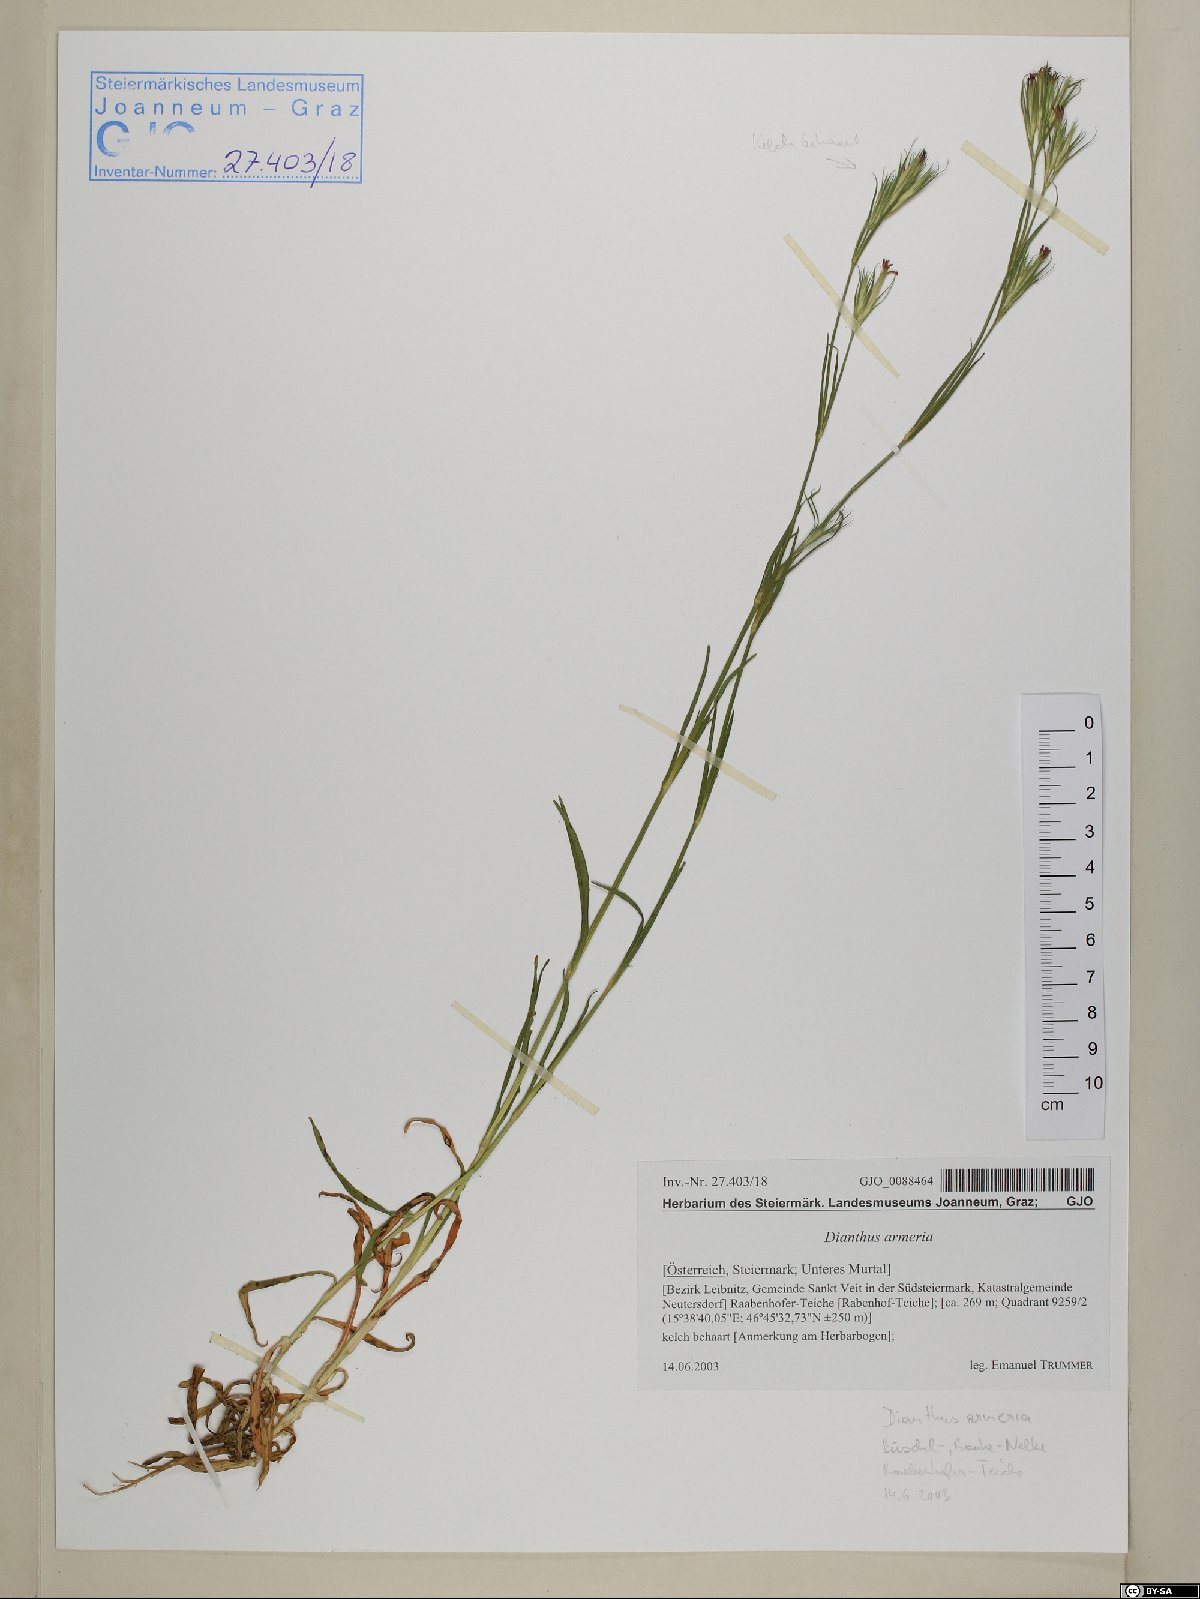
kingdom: Plantae
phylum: Tracheophyta
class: Magnoliopsida
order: Caryophyllales
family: Caryophyllaceae
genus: Dianthus
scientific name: Dianthus armeria
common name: Deptford pink
